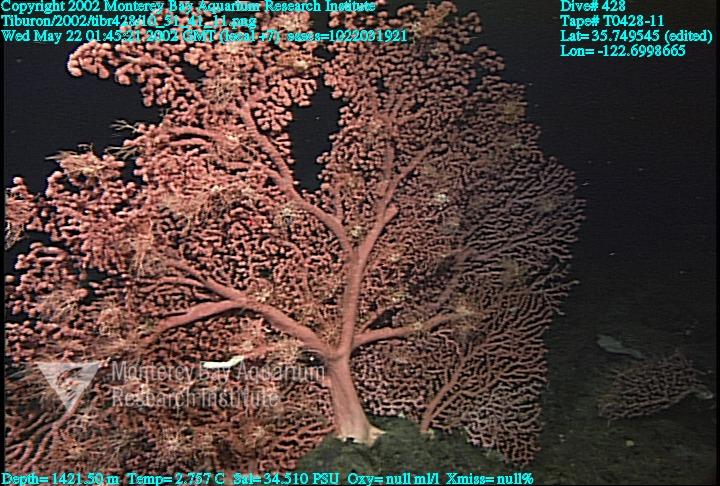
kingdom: Animalia
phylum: Porifera
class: Hexactinellida
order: Sceptrulophora
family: Euretidae
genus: Chonelasma
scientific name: Chonelasma
